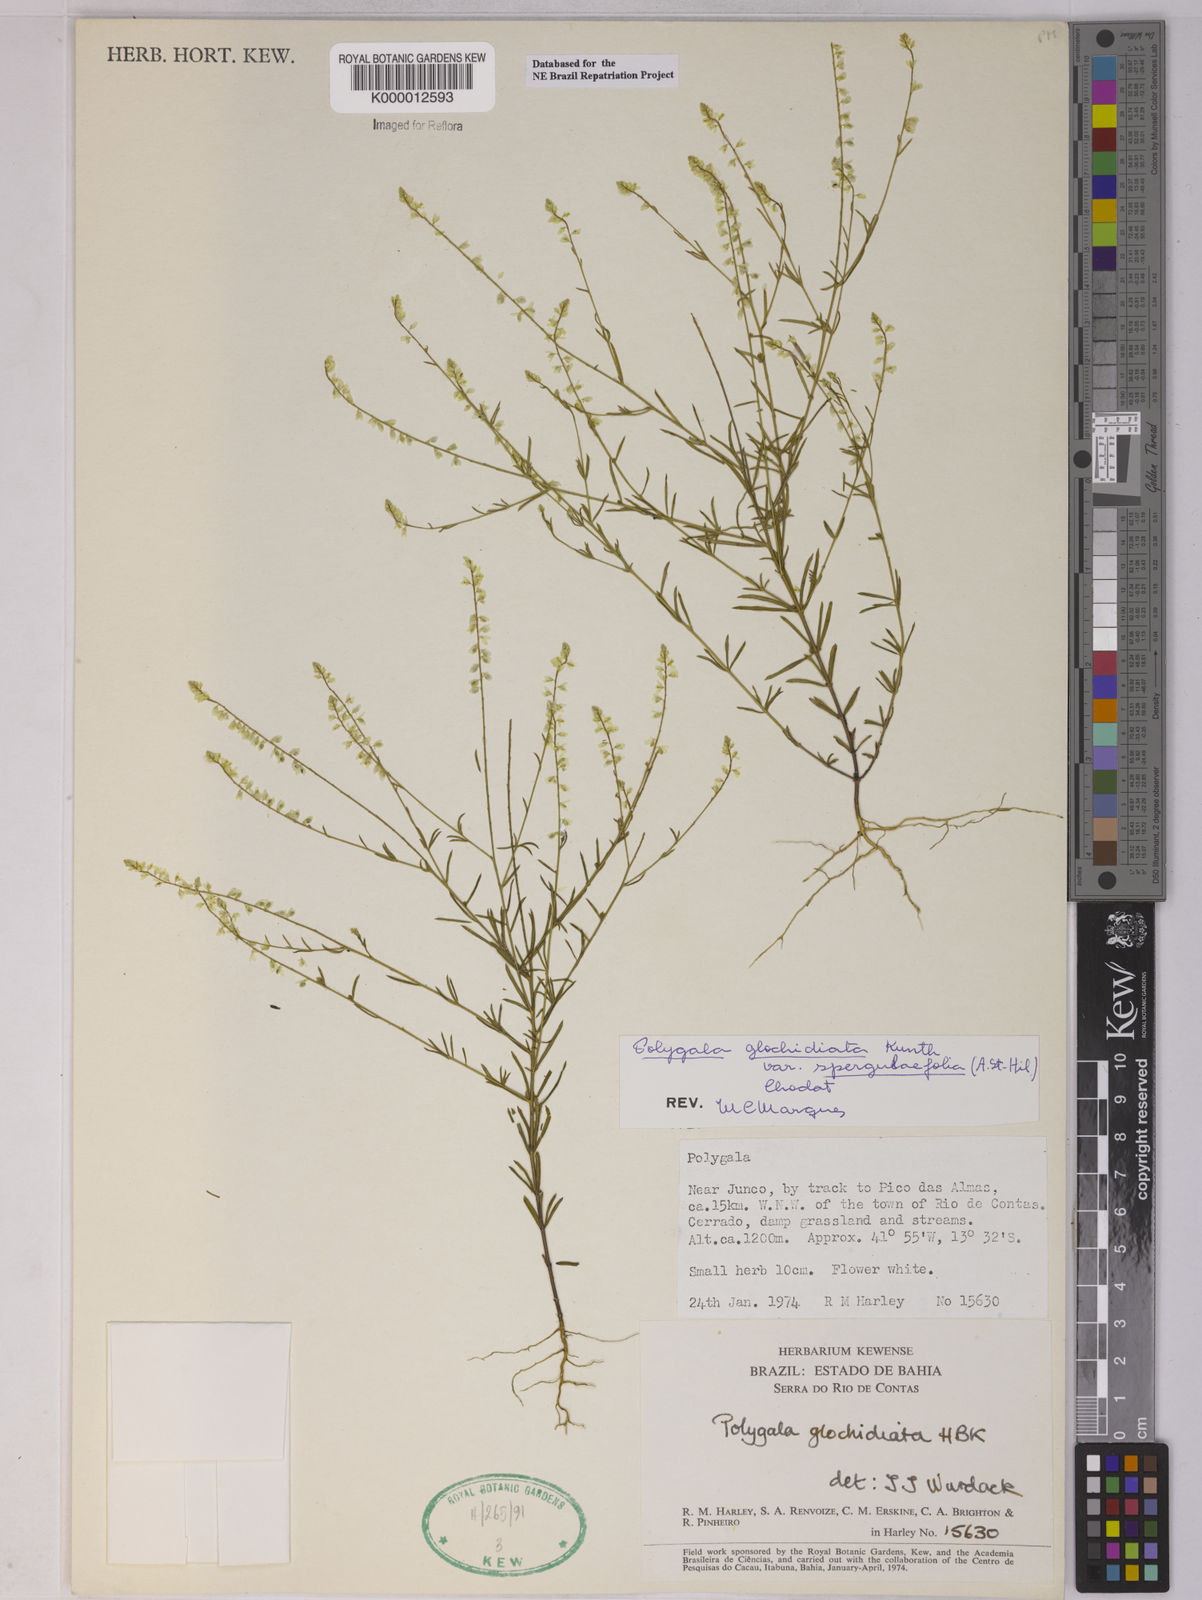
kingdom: Plantae
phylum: Tracheophyta
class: Magnoliopsida
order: Fabales
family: Polygalaceae
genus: Polygala
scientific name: Polygala glochidiata
